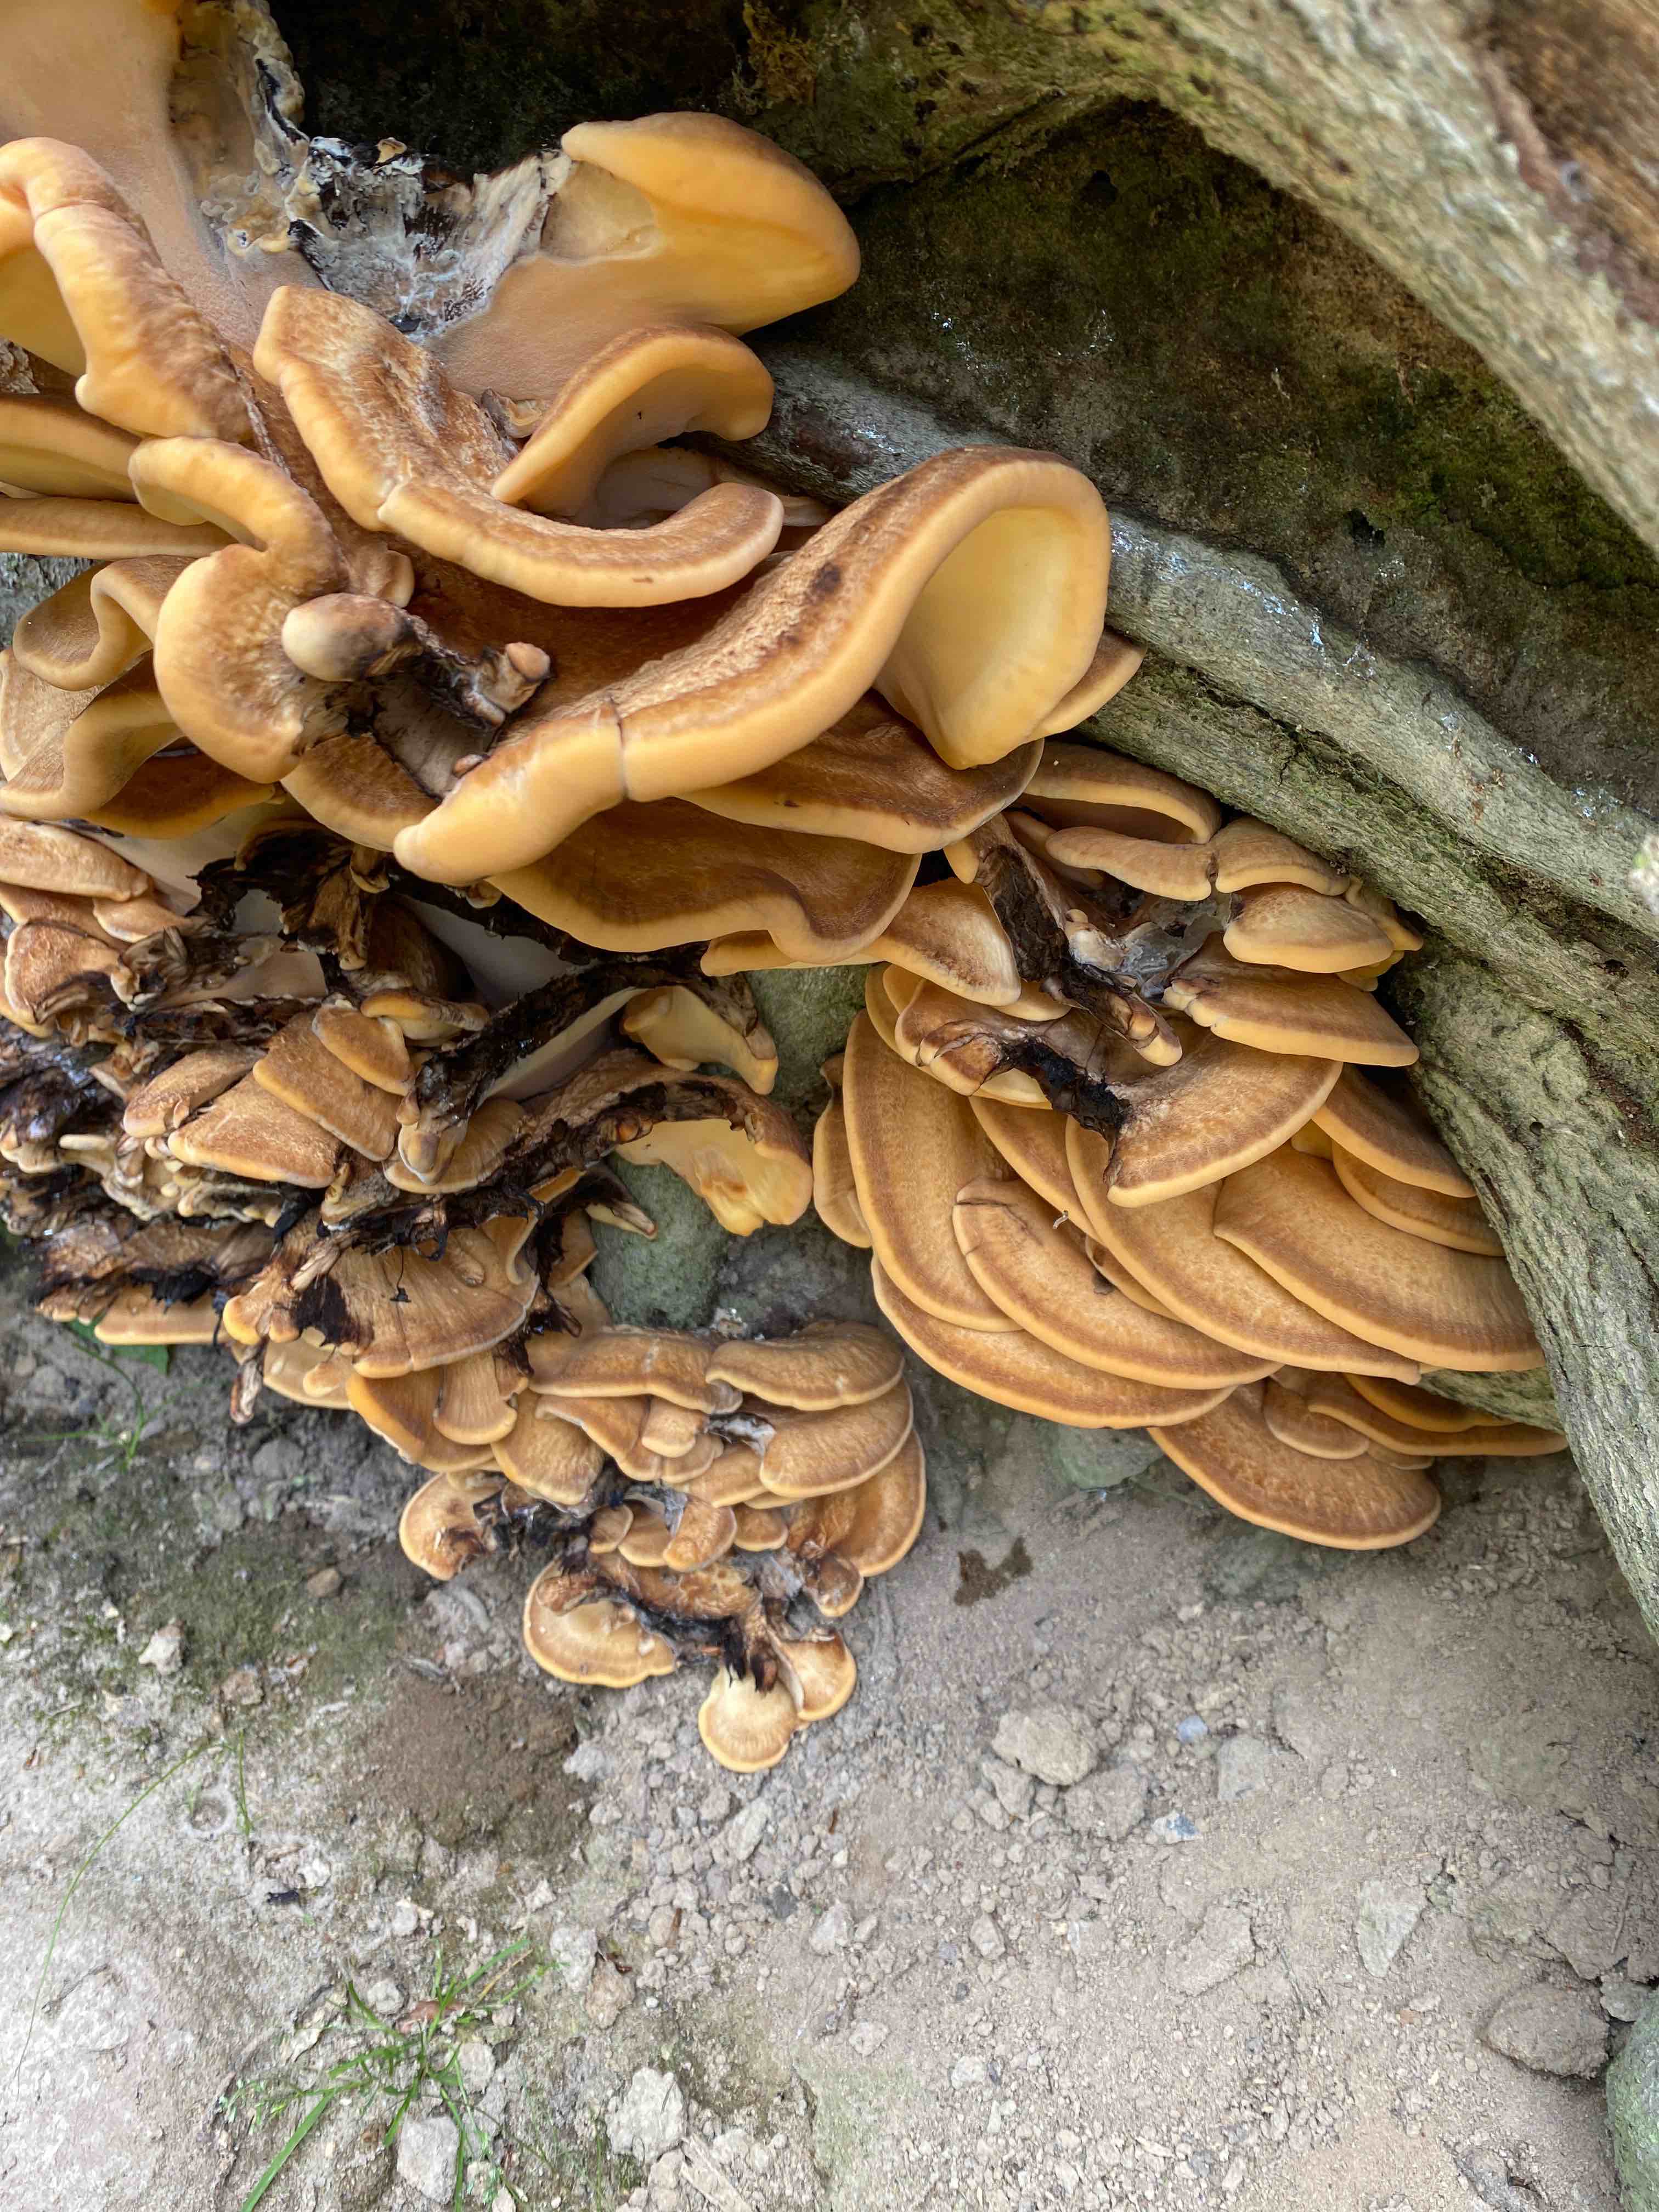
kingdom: Fungi
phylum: Basidiomycota
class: Agaricomycetes
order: Polyporales
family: Meripilaceae
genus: Meripilus
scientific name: Meripilus giganteus
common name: kæmpeporesvamp
